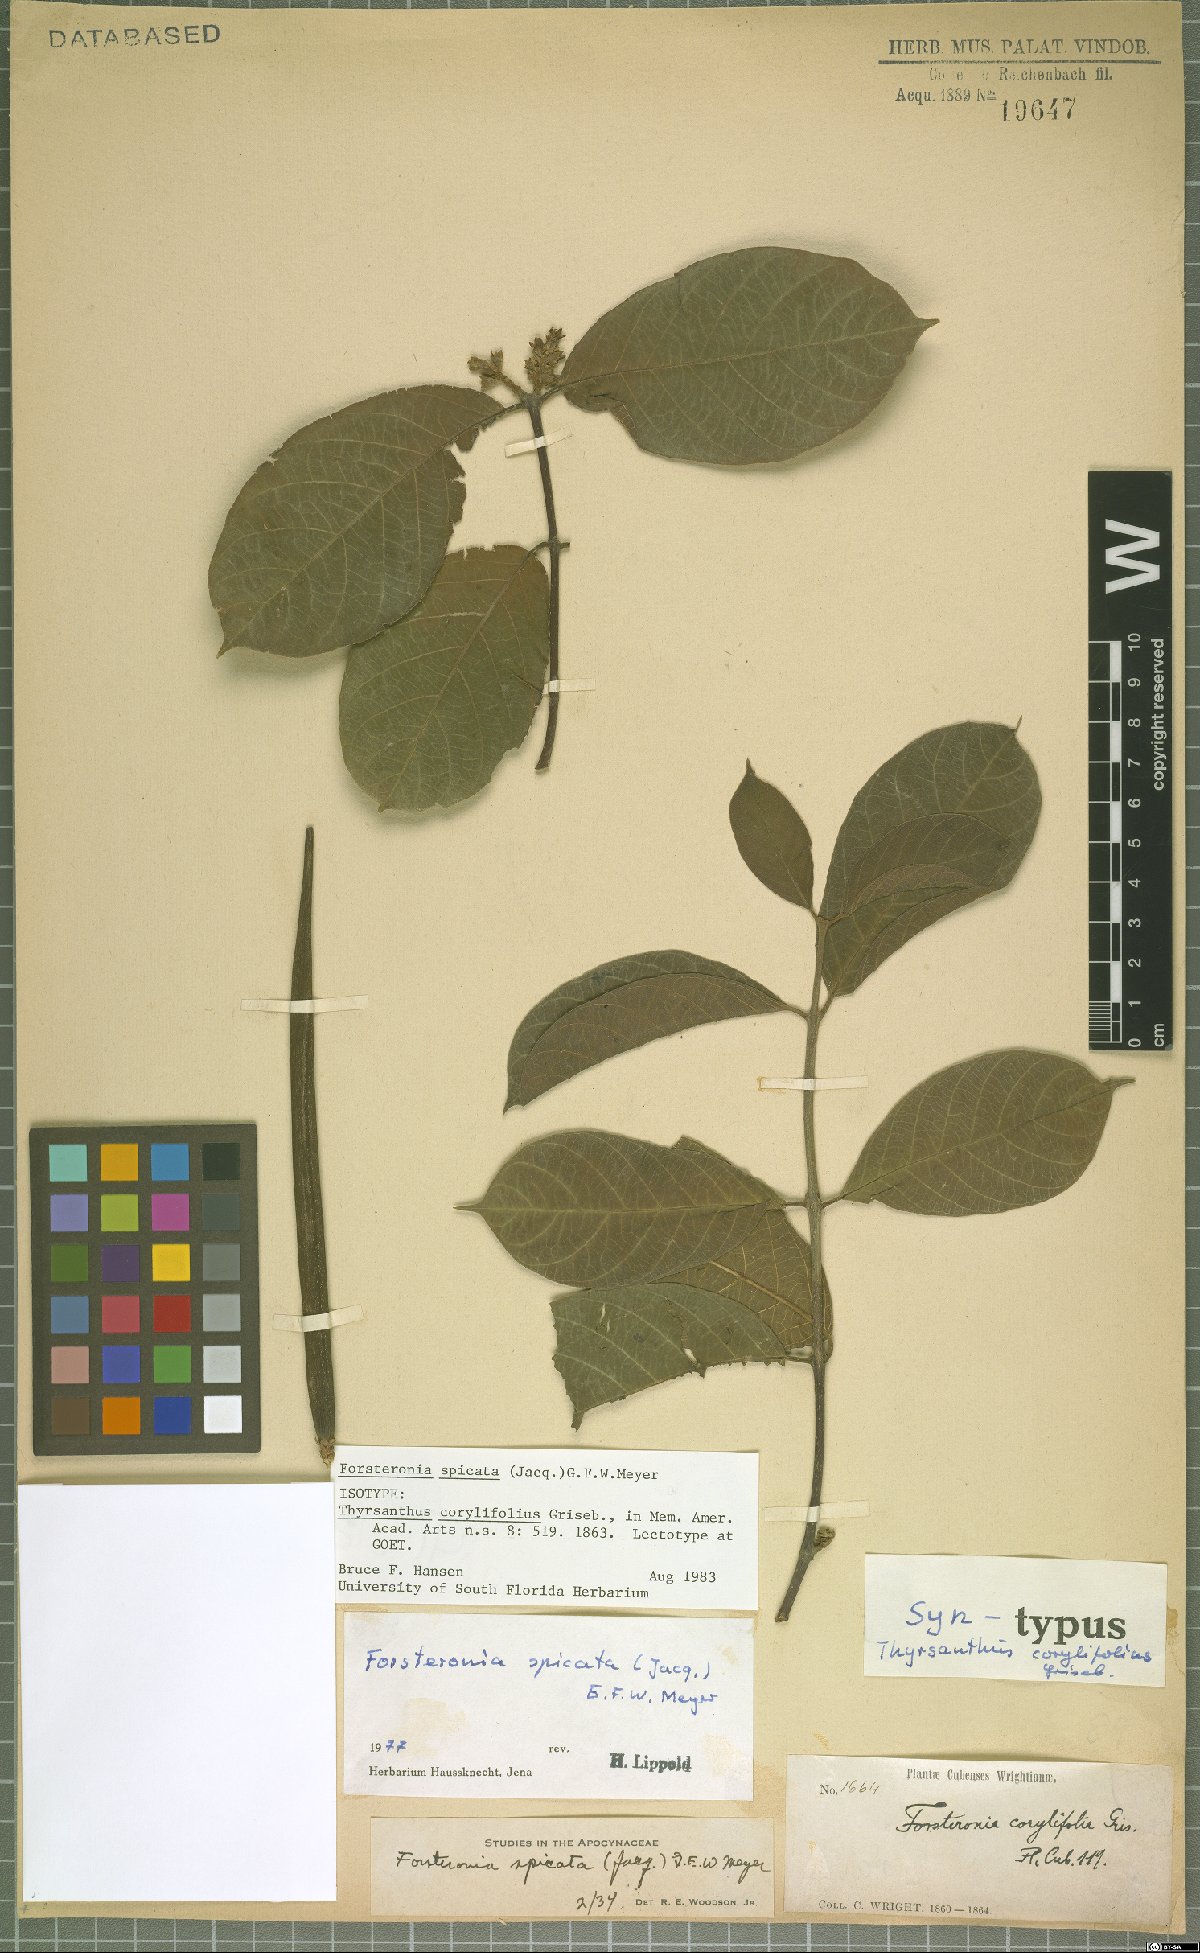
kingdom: Plantae
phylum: Tracheophyta
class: Magnoliopsida
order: Gentianales
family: Apocynaceae
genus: Forsteronia
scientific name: Forsteronia spicata
